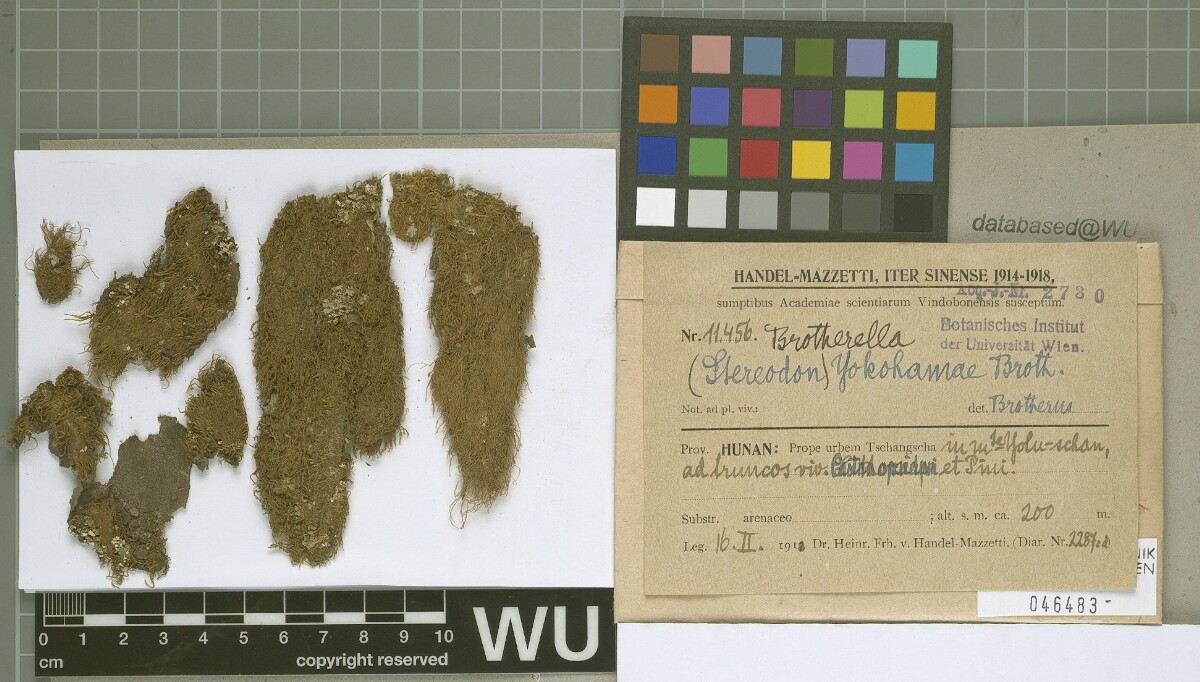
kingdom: Plantae
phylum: Bryophyta
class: Bryopsida
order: Hypnales
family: Pylaisiadelphaceae
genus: Brotherella
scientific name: Brotherella yokohamae
